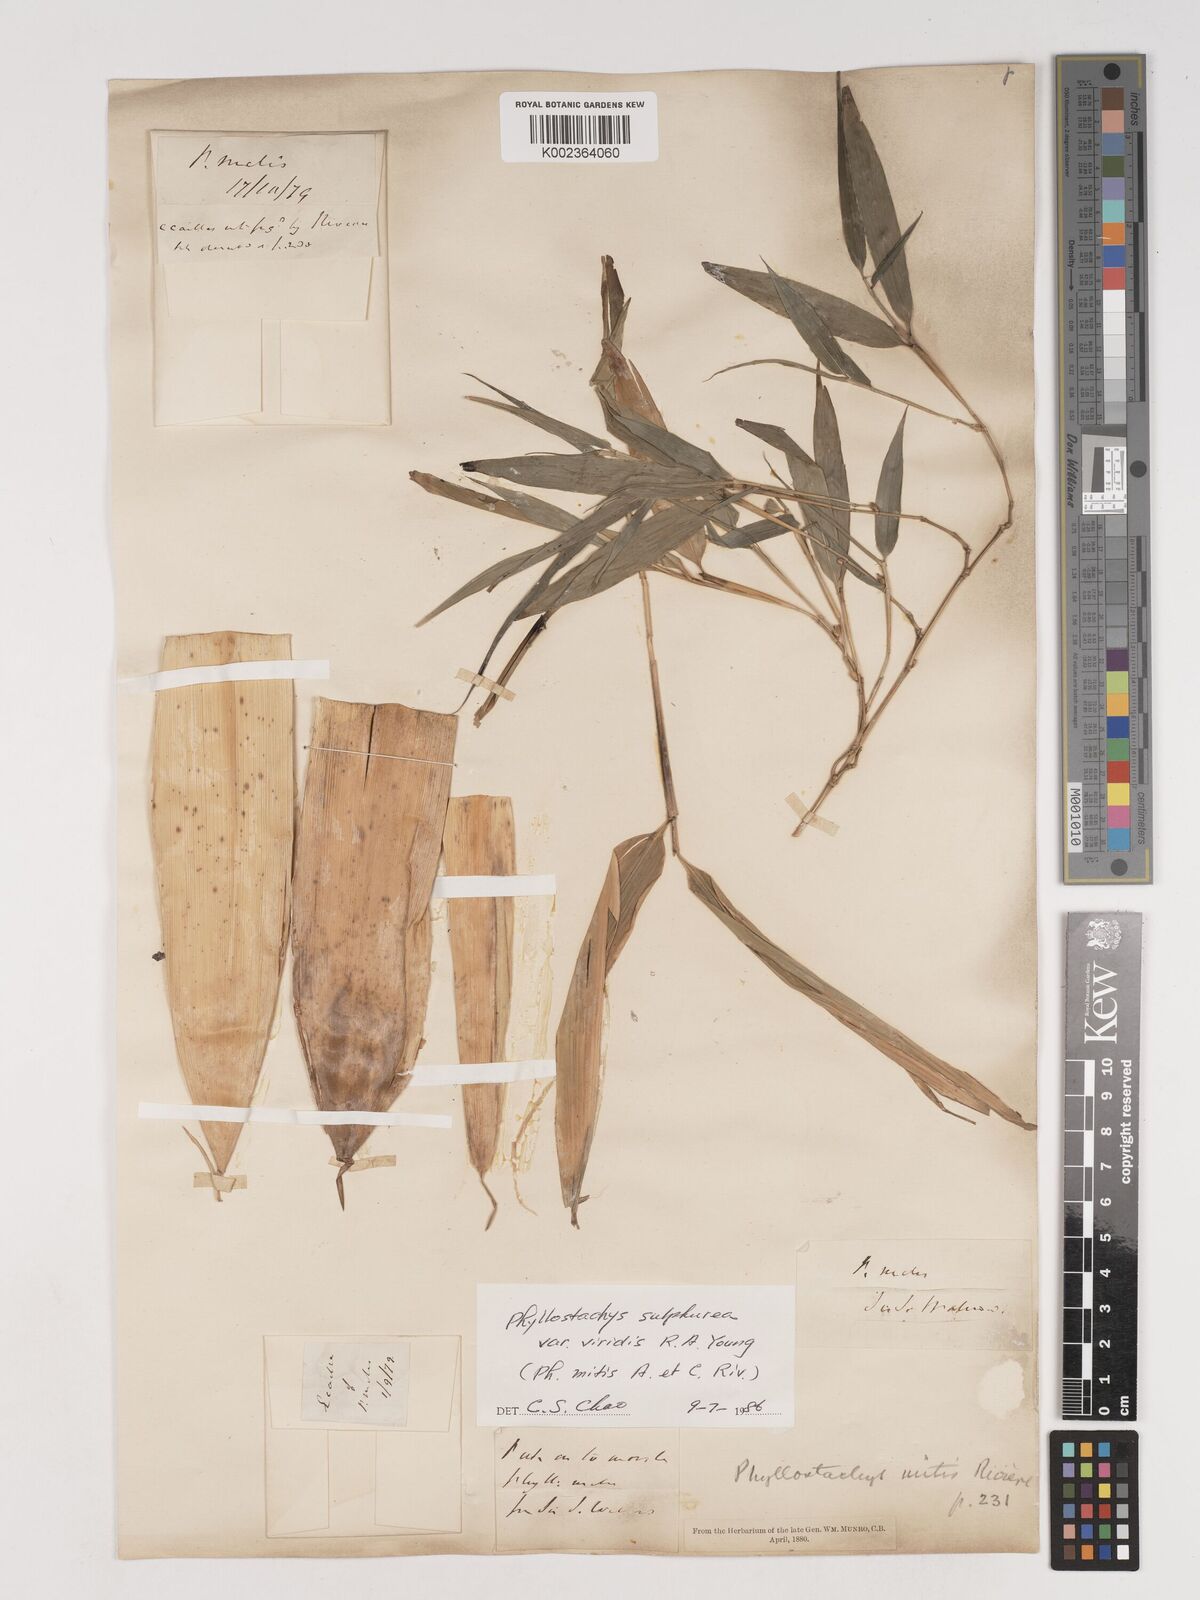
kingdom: Plantae
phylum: Tracheophyta
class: Liliopsida
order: Poales
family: Poaceae
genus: Phyllostachys
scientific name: Phyllostachys sulphurea
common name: Sulphur bamboo
